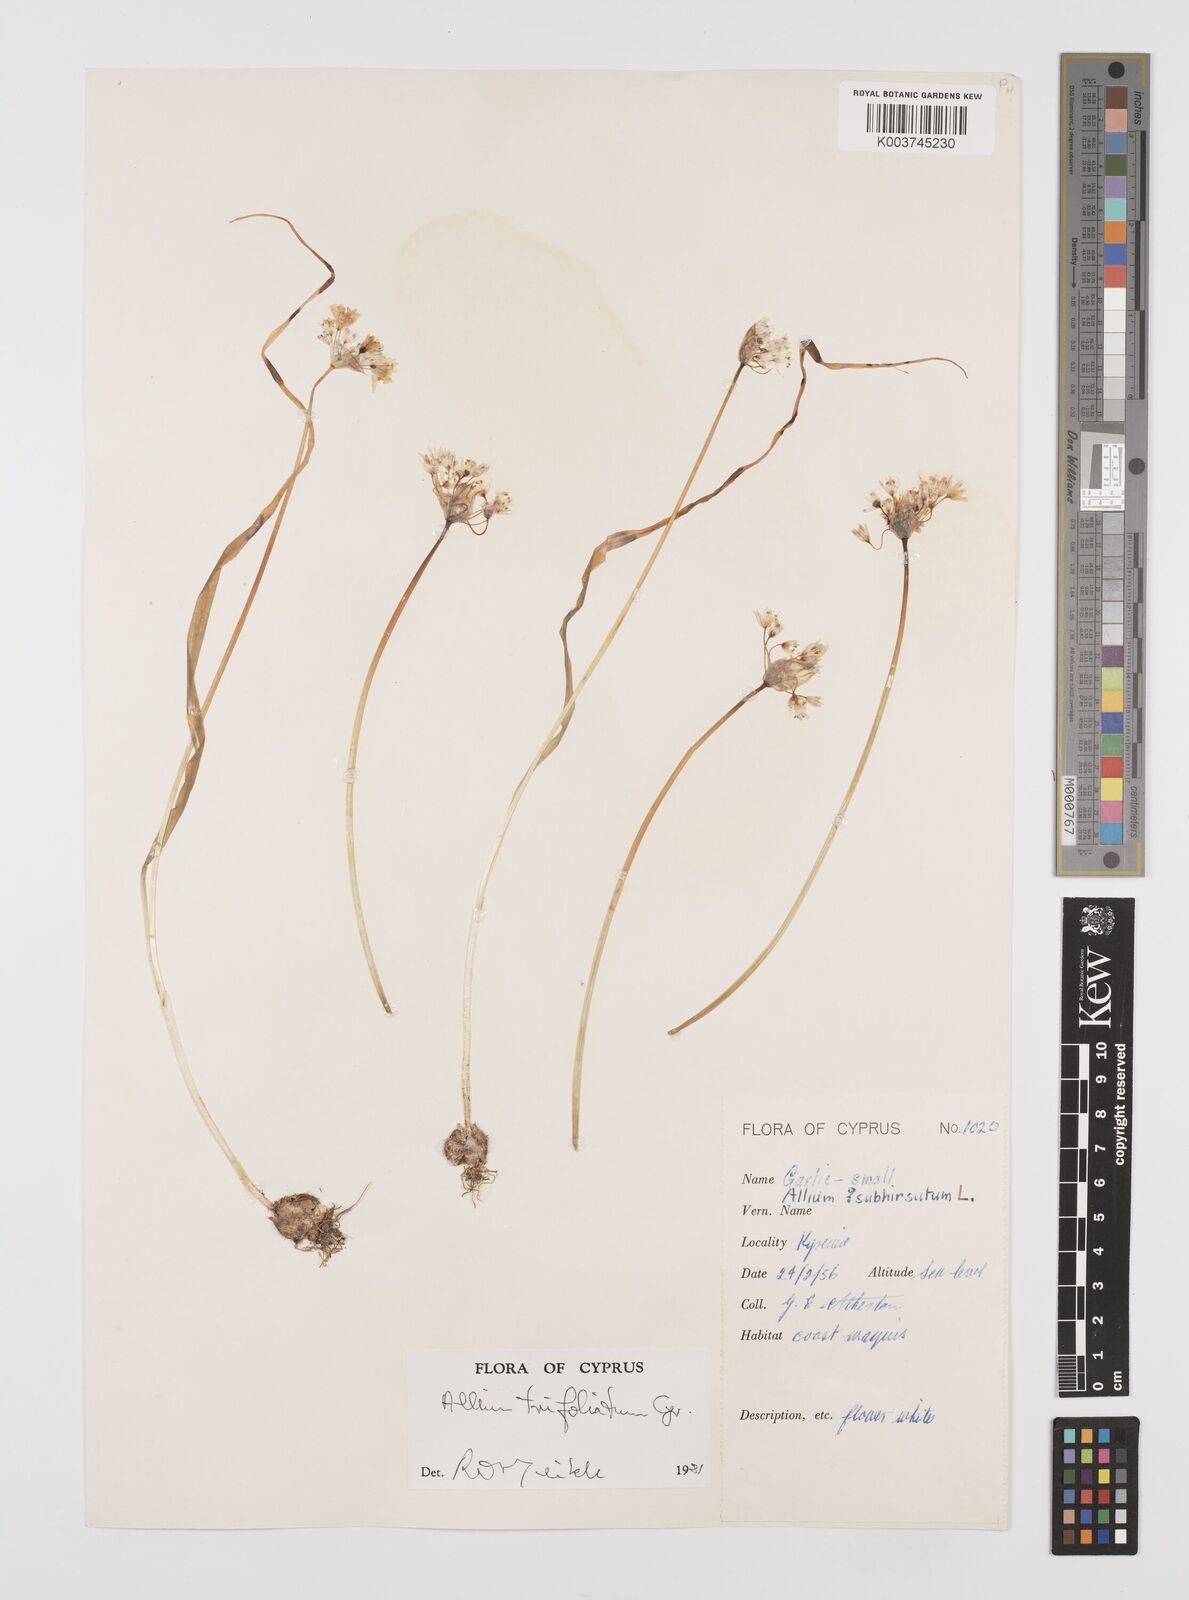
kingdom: Plantae
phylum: Tracheophyta
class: Liliopsida
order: Asparagales
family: Amaryllidaceae
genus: Allium
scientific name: Allium subhirsutum
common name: Hairy garlic
